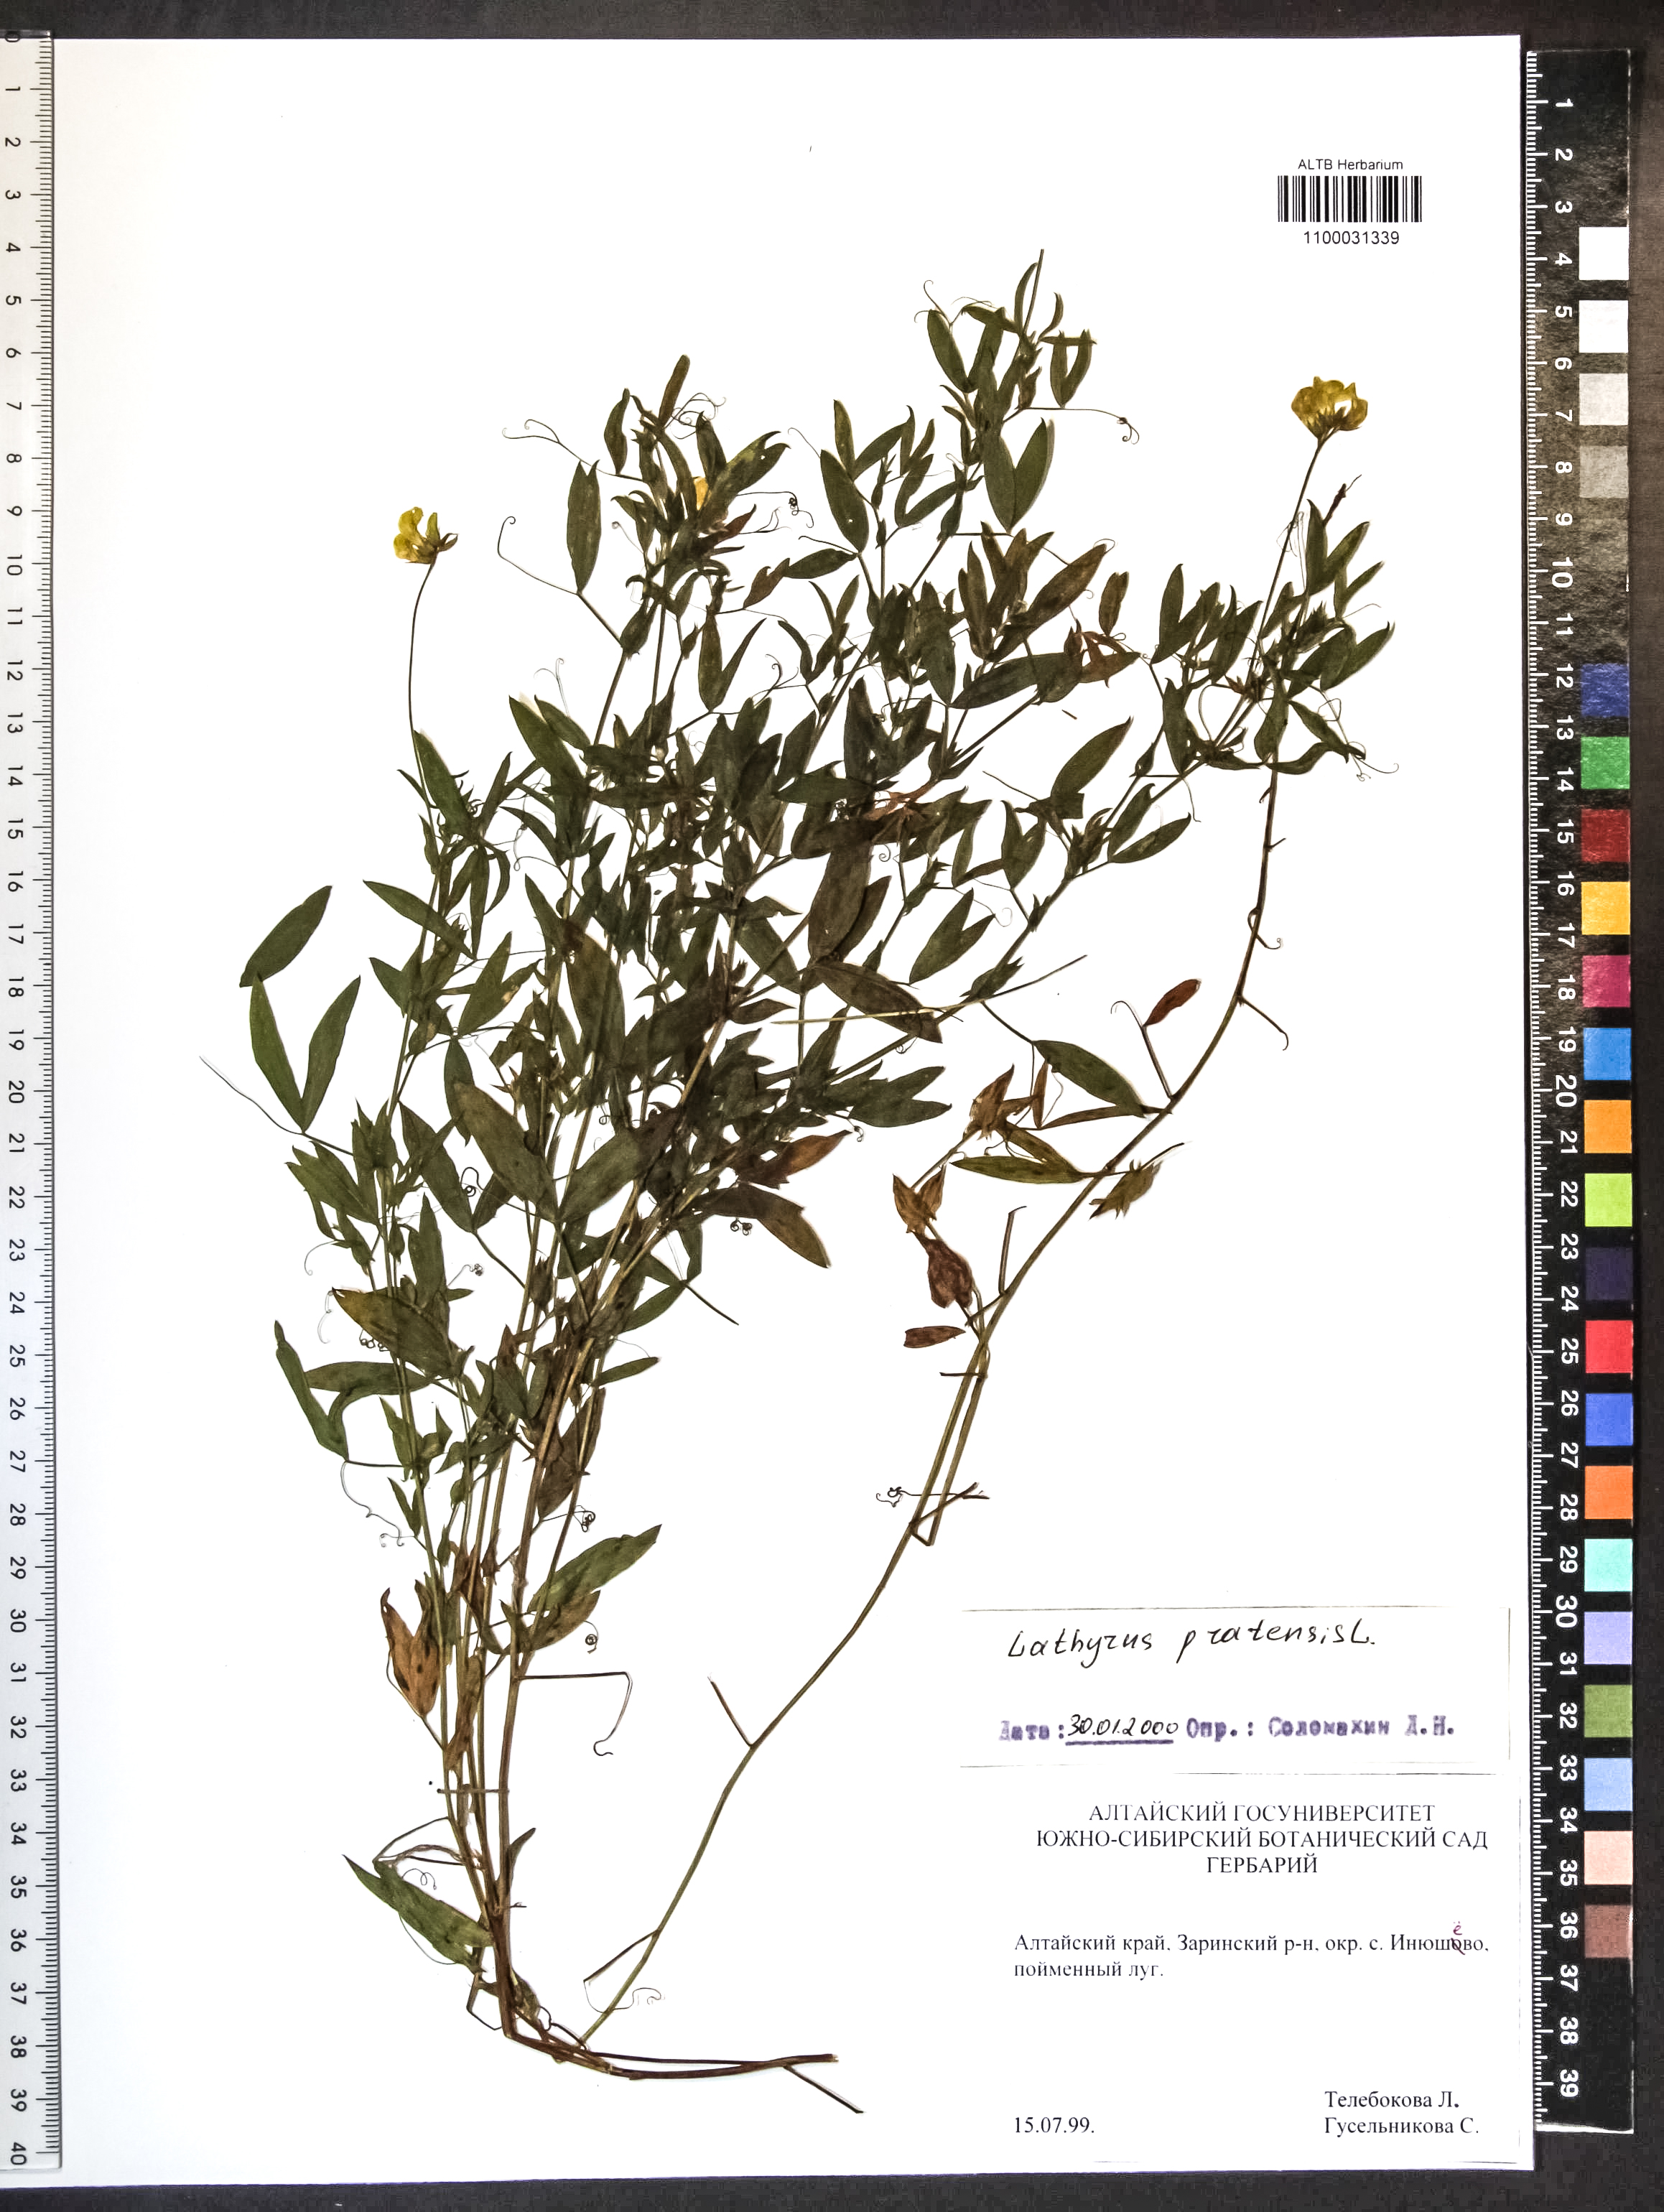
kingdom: Plantae
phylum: Tracheophyta
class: Magnoliopsida
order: Fabales
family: Fabaceae
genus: Lathyrus
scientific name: Lathyrus pratensis
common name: Meadow vetchling
